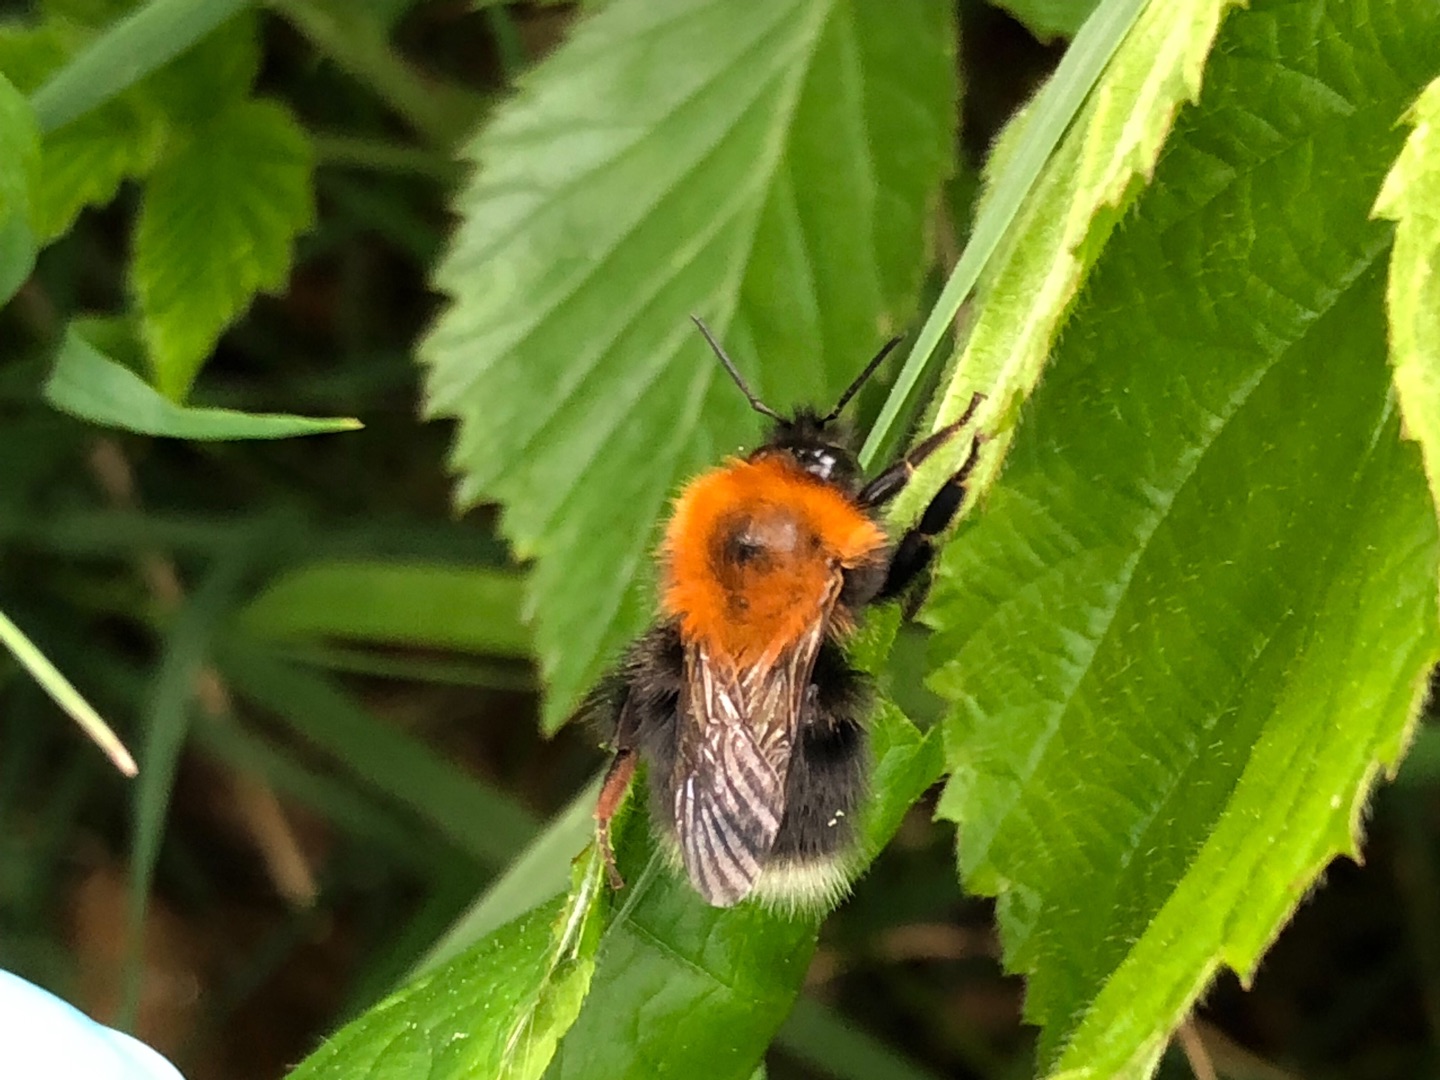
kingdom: Animalia
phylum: Arthropoda
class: Insecta
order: Hymenoptera
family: Apidae
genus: Bombus
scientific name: Bombus hypnorum
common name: Hushumle
